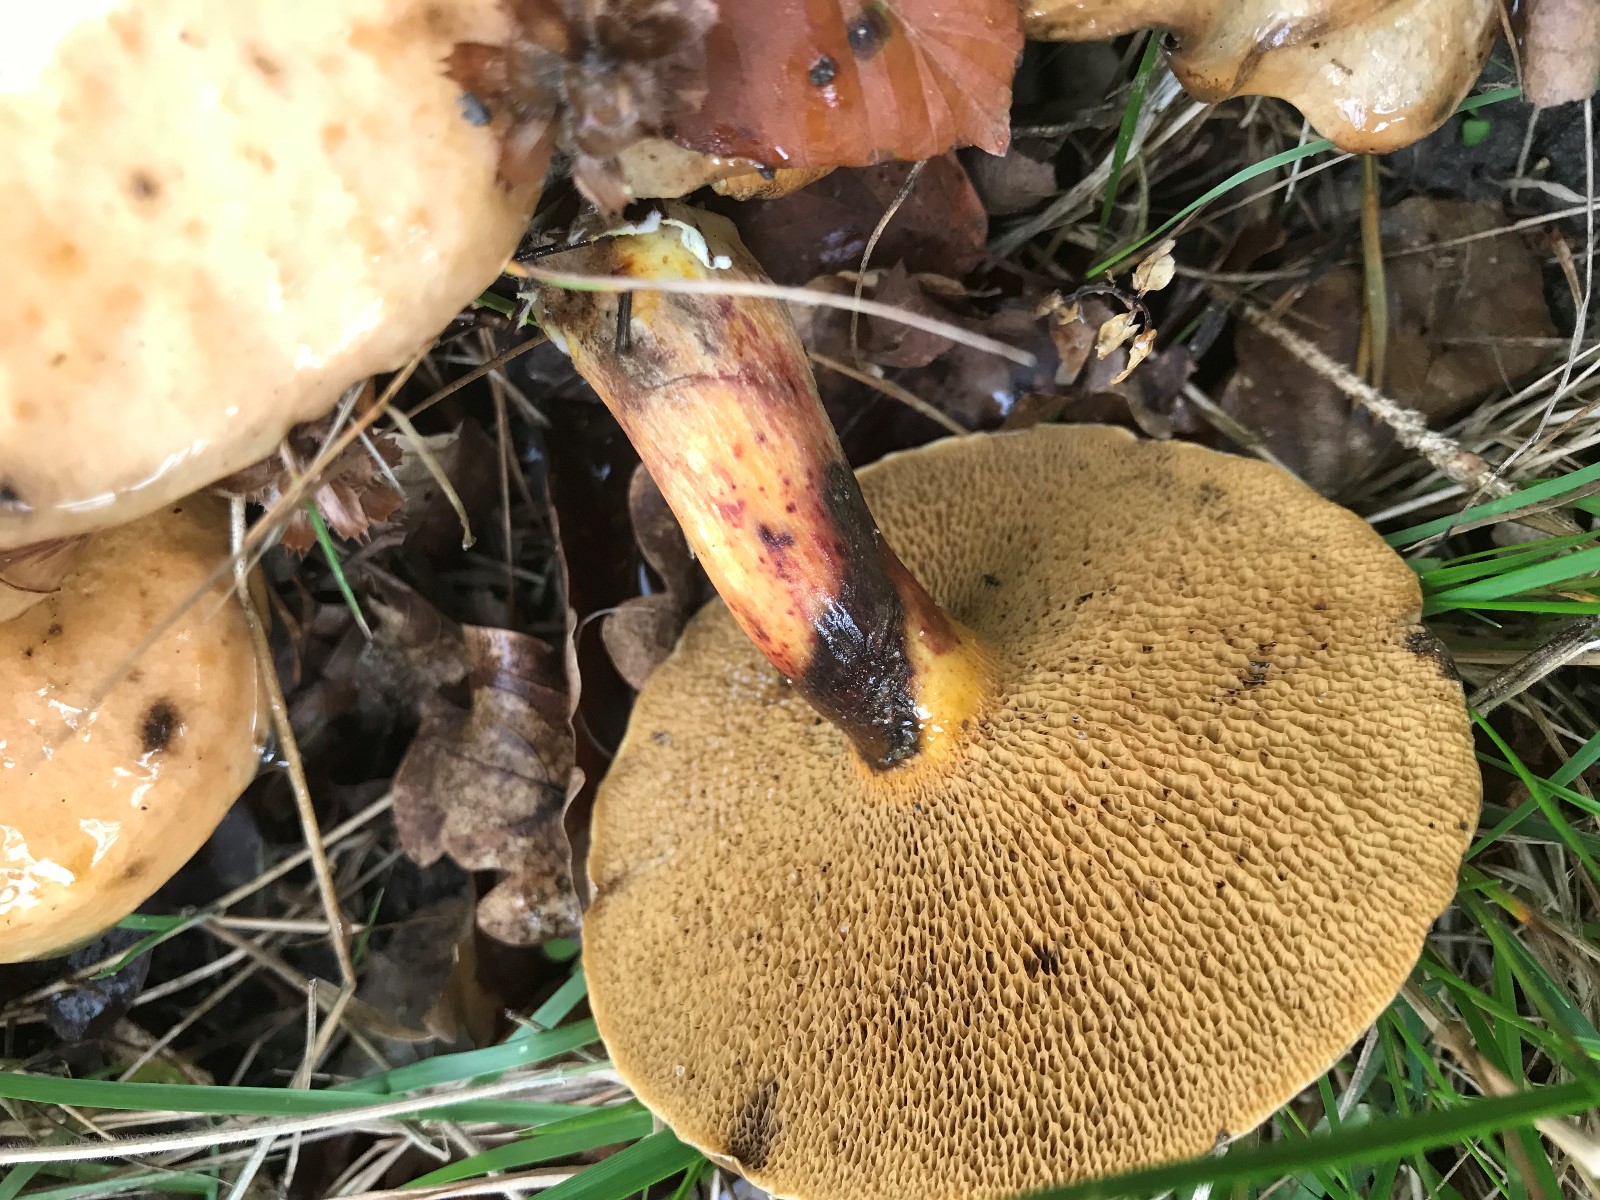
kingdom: Fungi
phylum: Basidiomycota
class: Agaricomycetes
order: Boletales
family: Suillaceae
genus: Suillus
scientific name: Suillus bovinus
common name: grovporet slimrørhat
